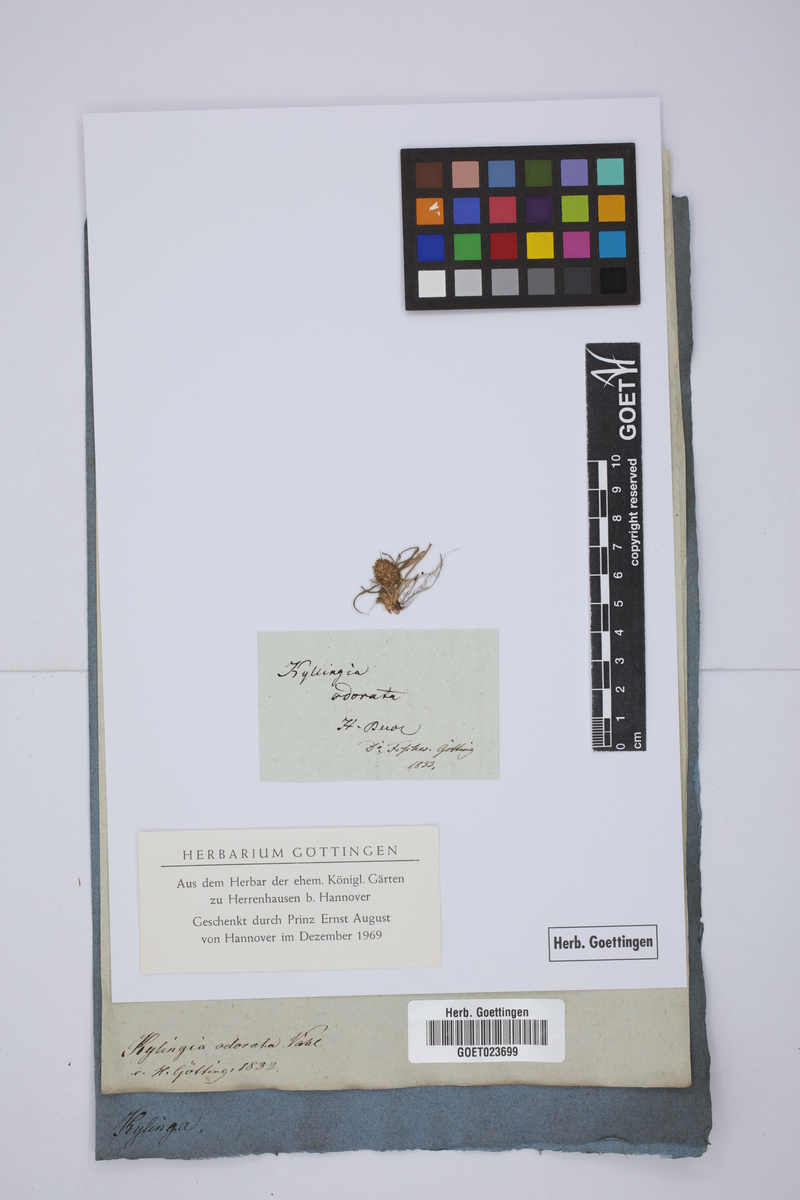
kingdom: Plantae
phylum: Tracheophyta
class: Liliopsida
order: Poales
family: Cyperaceae
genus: Cyperus
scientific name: Cyperus sesquiflorus
